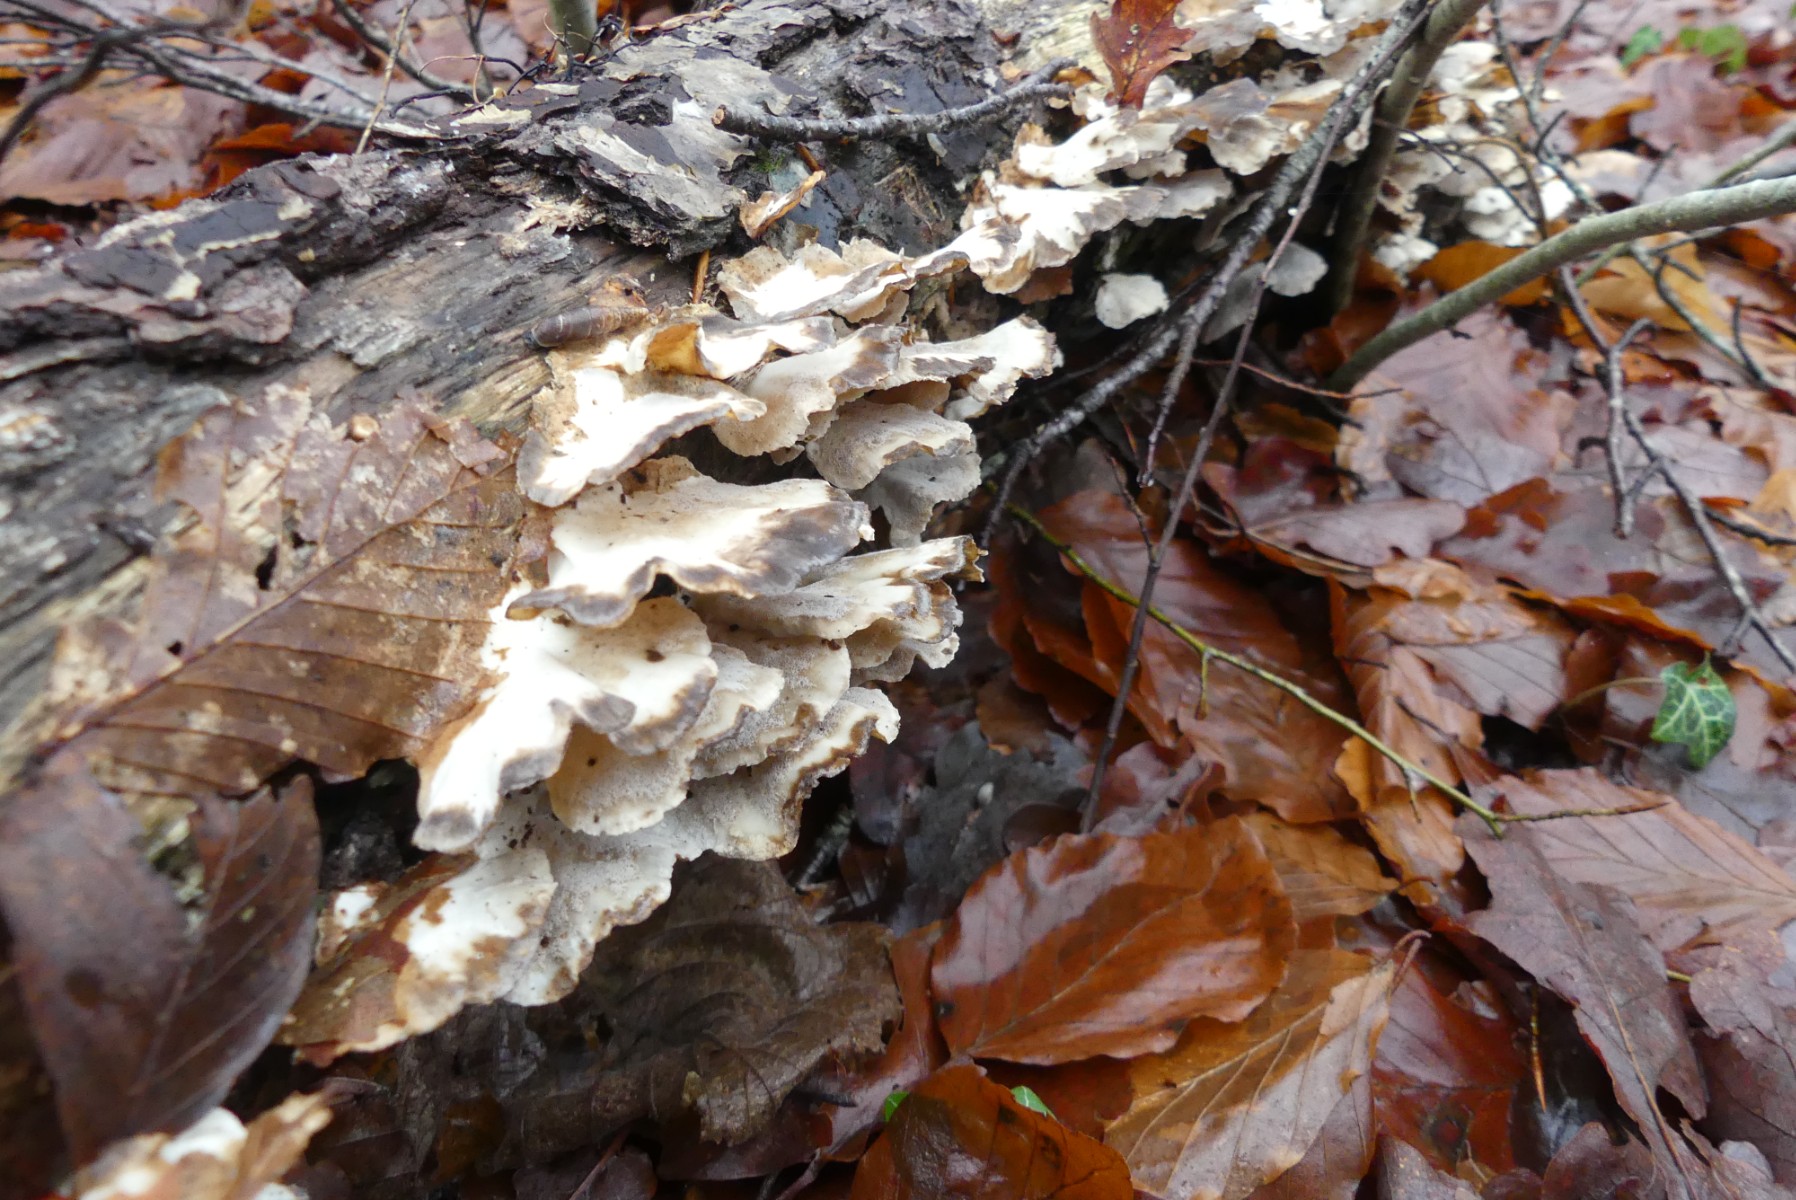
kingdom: Fungi
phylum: Basidiomycota
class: Agaricomycetes
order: Polyporales
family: Polyporaceae
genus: Trametes
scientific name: Trametes versicolor
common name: broget læderporesvamp
